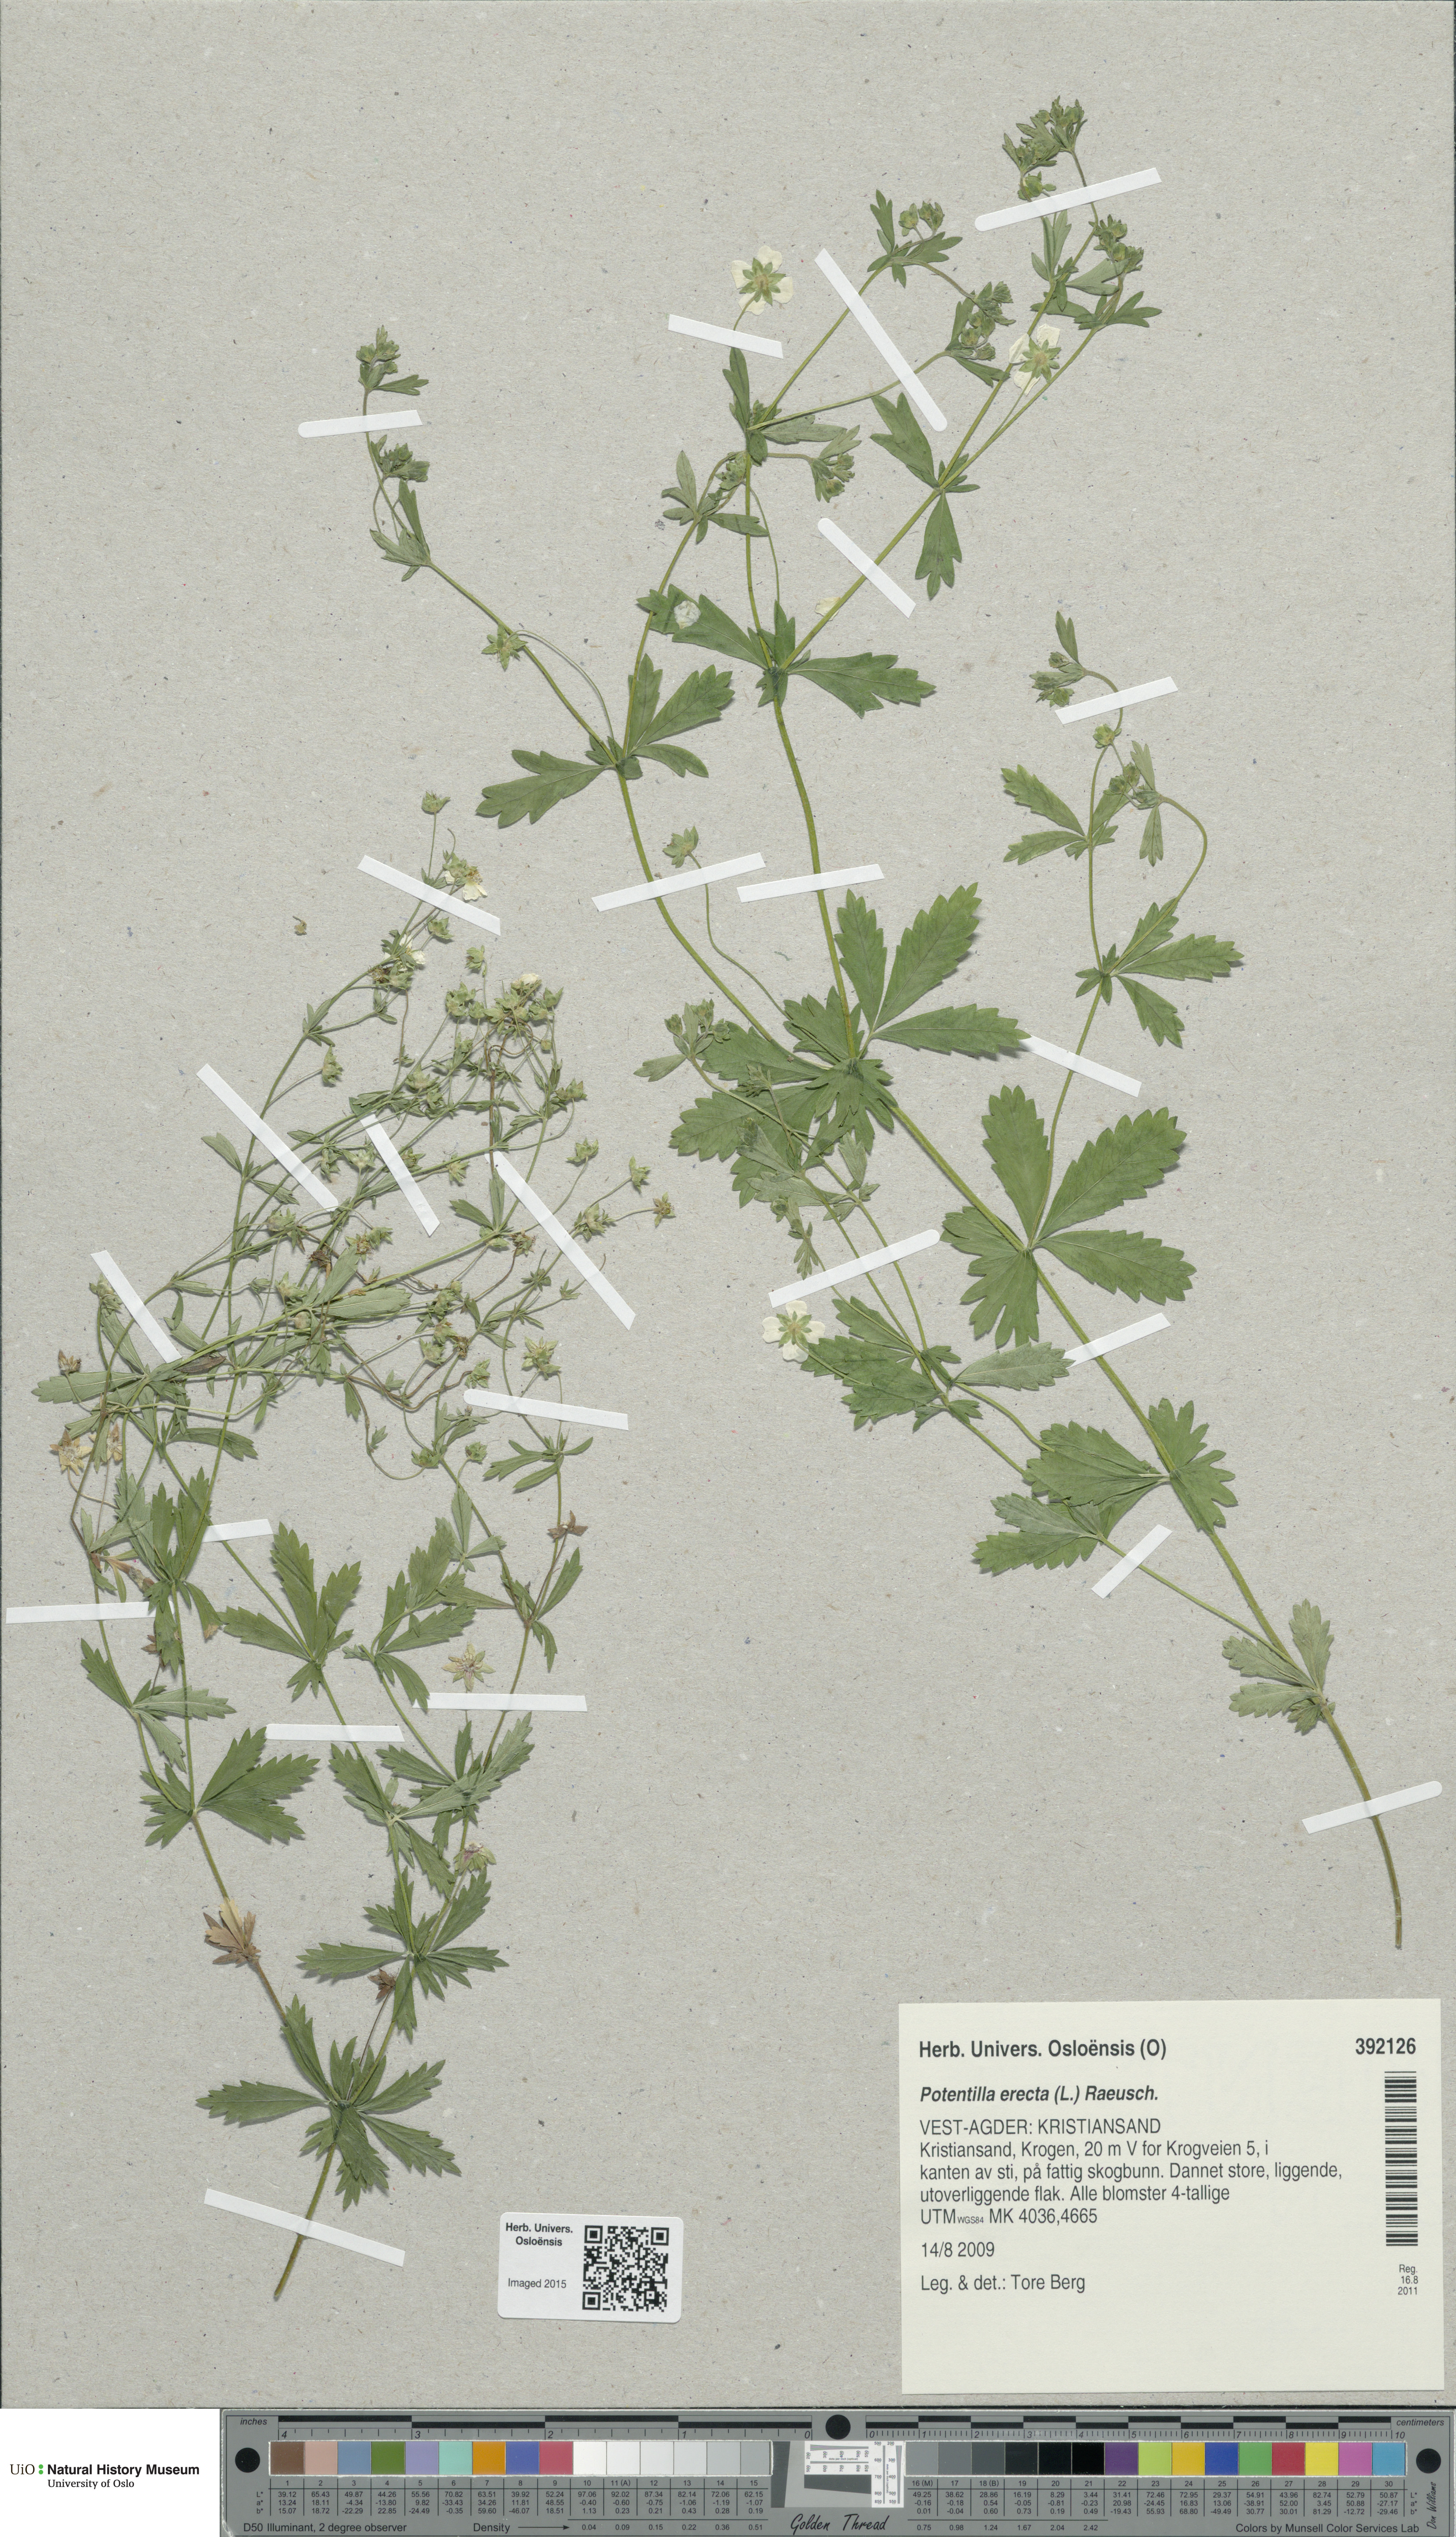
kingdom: Plantae
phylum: Tracheophyta
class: Magnoliopsida
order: Rosales
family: Rosaceae
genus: Potentilla
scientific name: Potentilla erecta
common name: Tormentil
